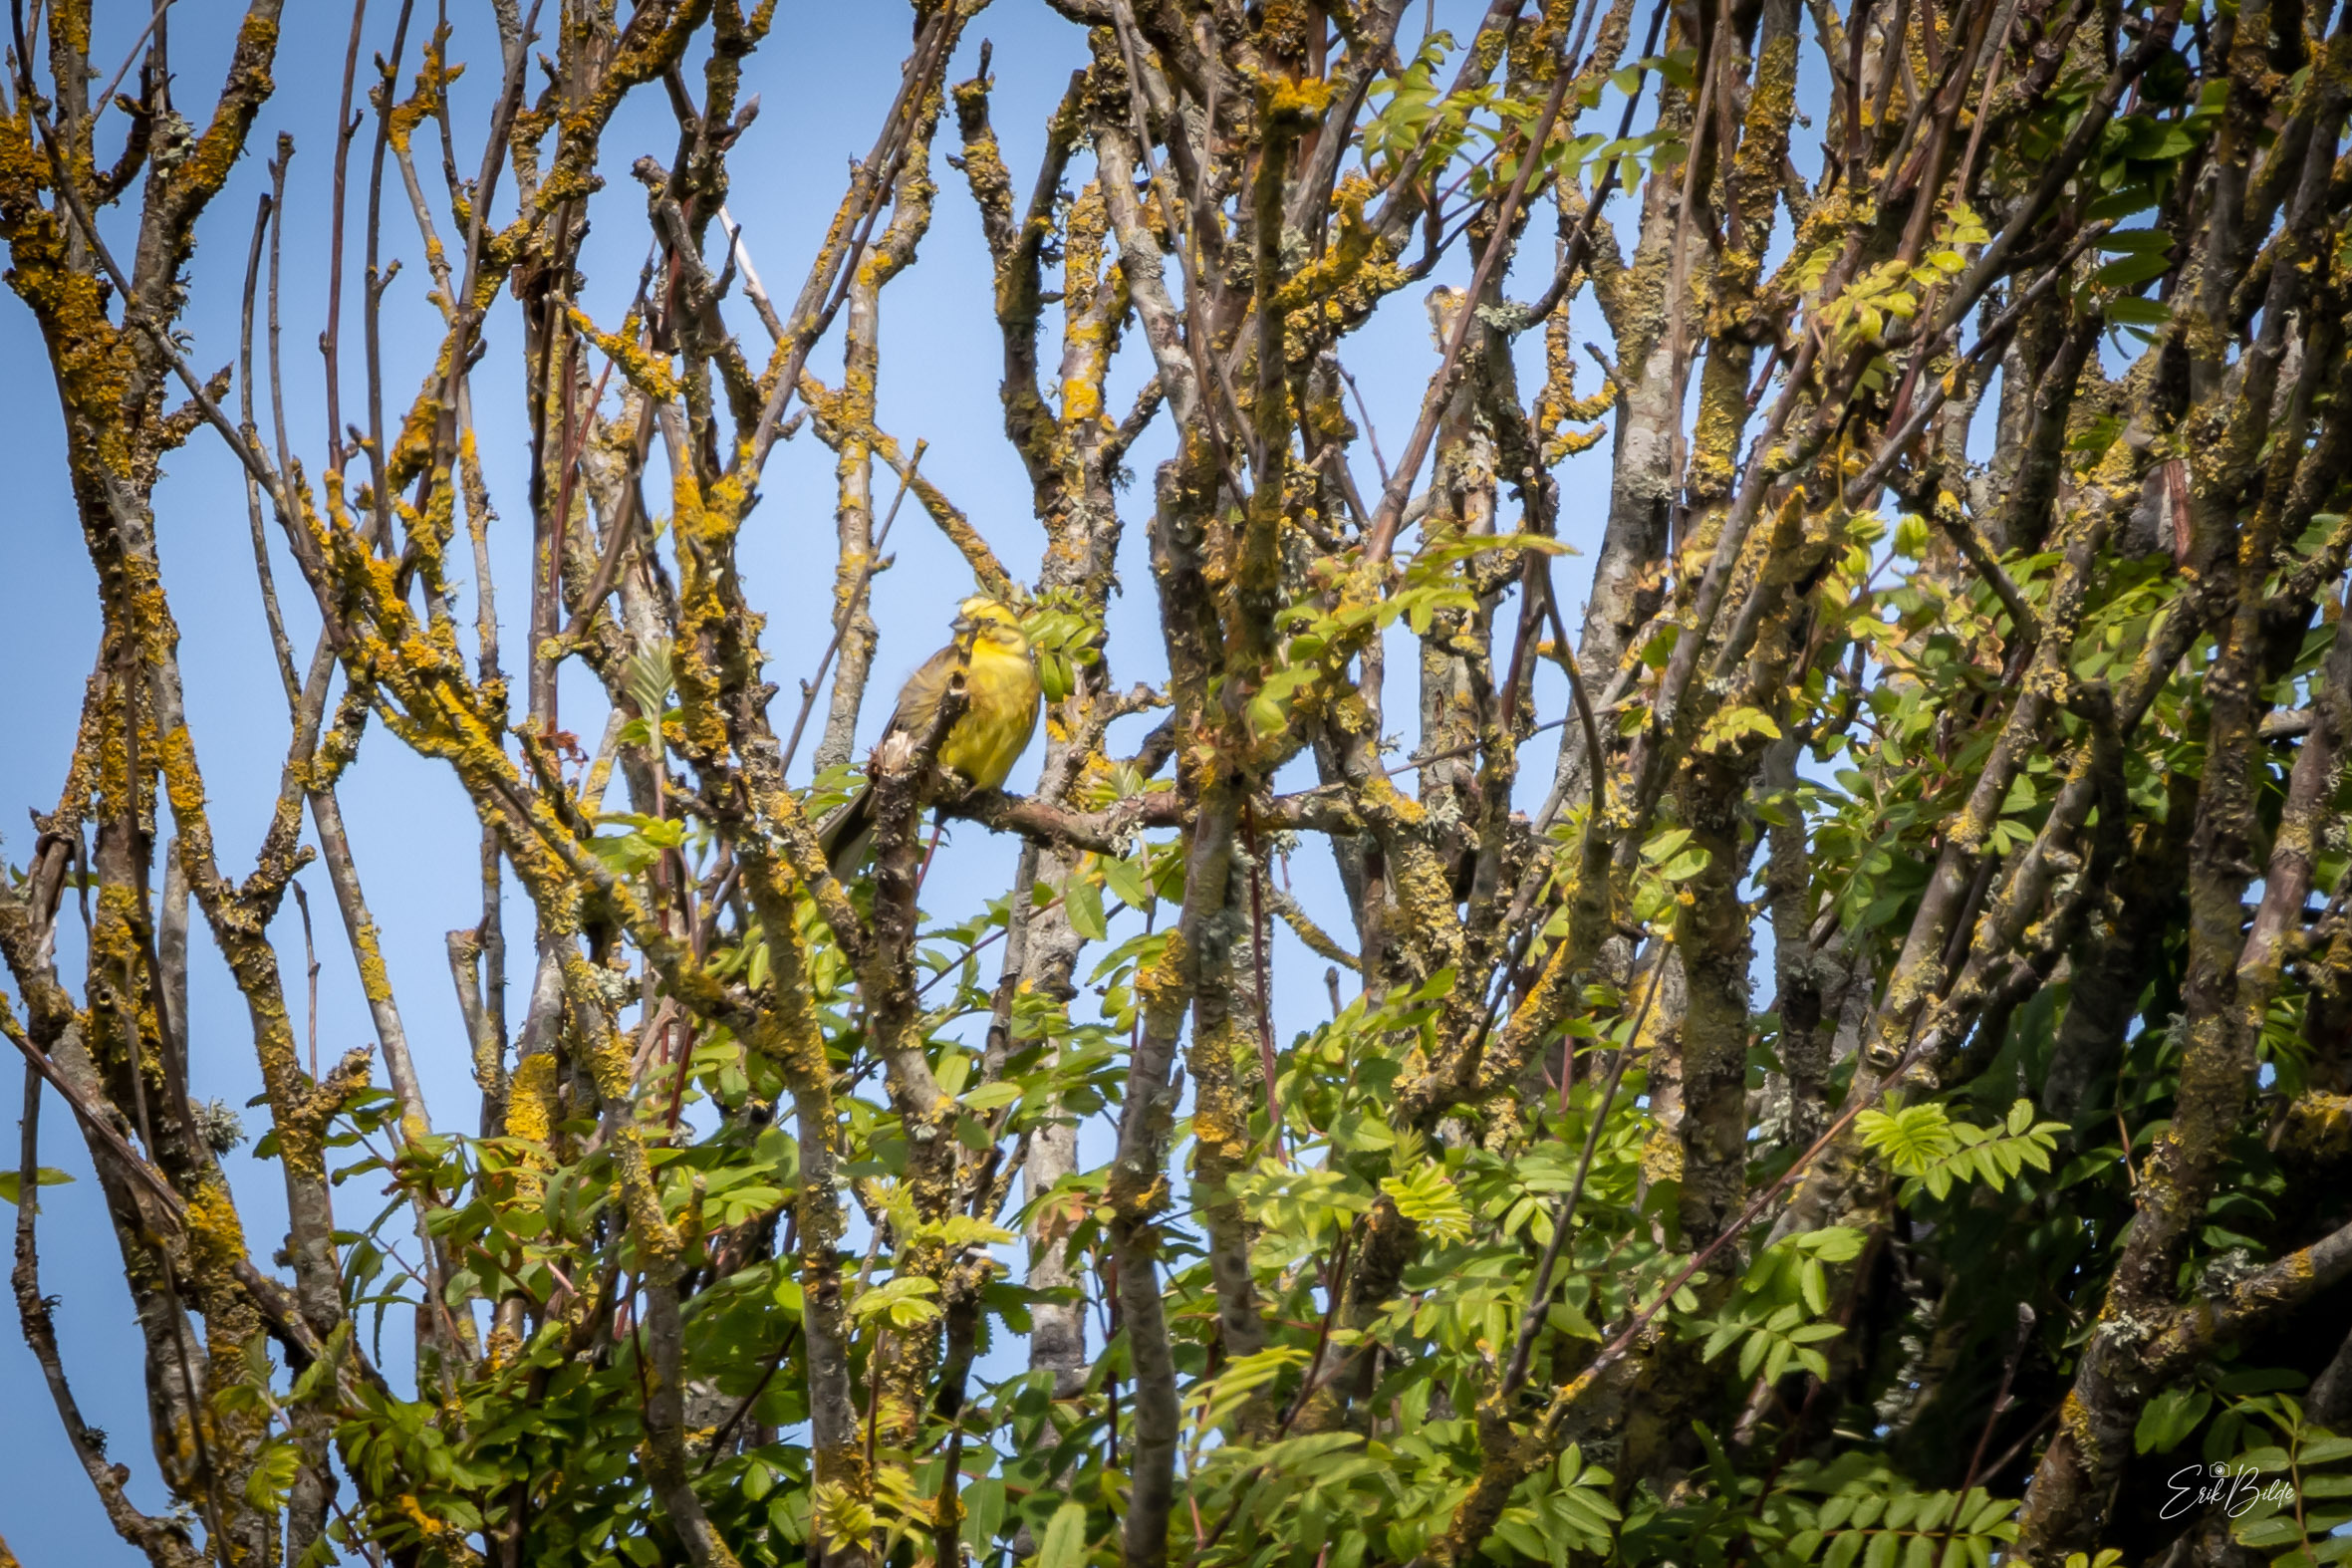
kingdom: Animalia
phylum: Chordata
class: Aves
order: Passeriformes
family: Emberizidae
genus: Emberiza
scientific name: Emberiza citrinella
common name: Gulspurv
